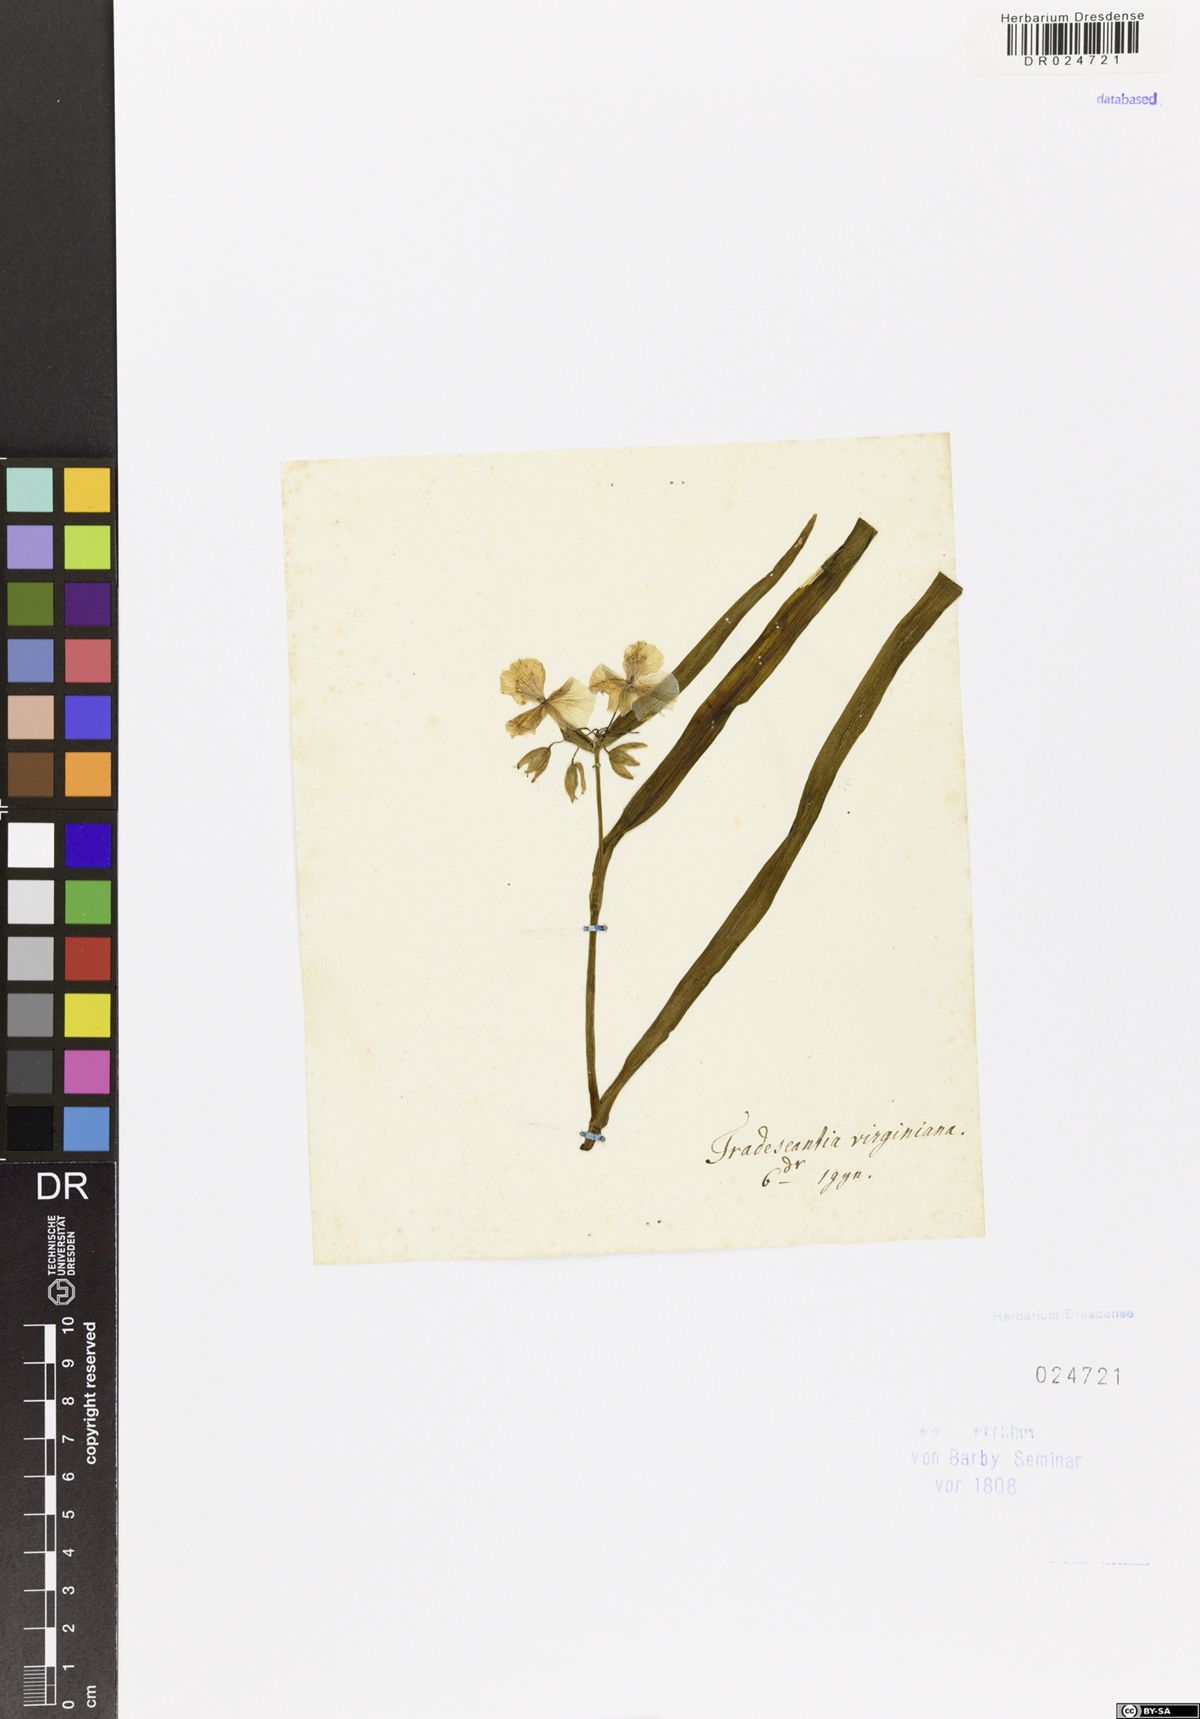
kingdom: Plantae
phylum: Tracheophyta
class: Liliopsida
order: Commelinales
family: Commelinaceae
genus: Tradescantia
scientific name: Tradescantia virginiana
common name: Spiderwort
